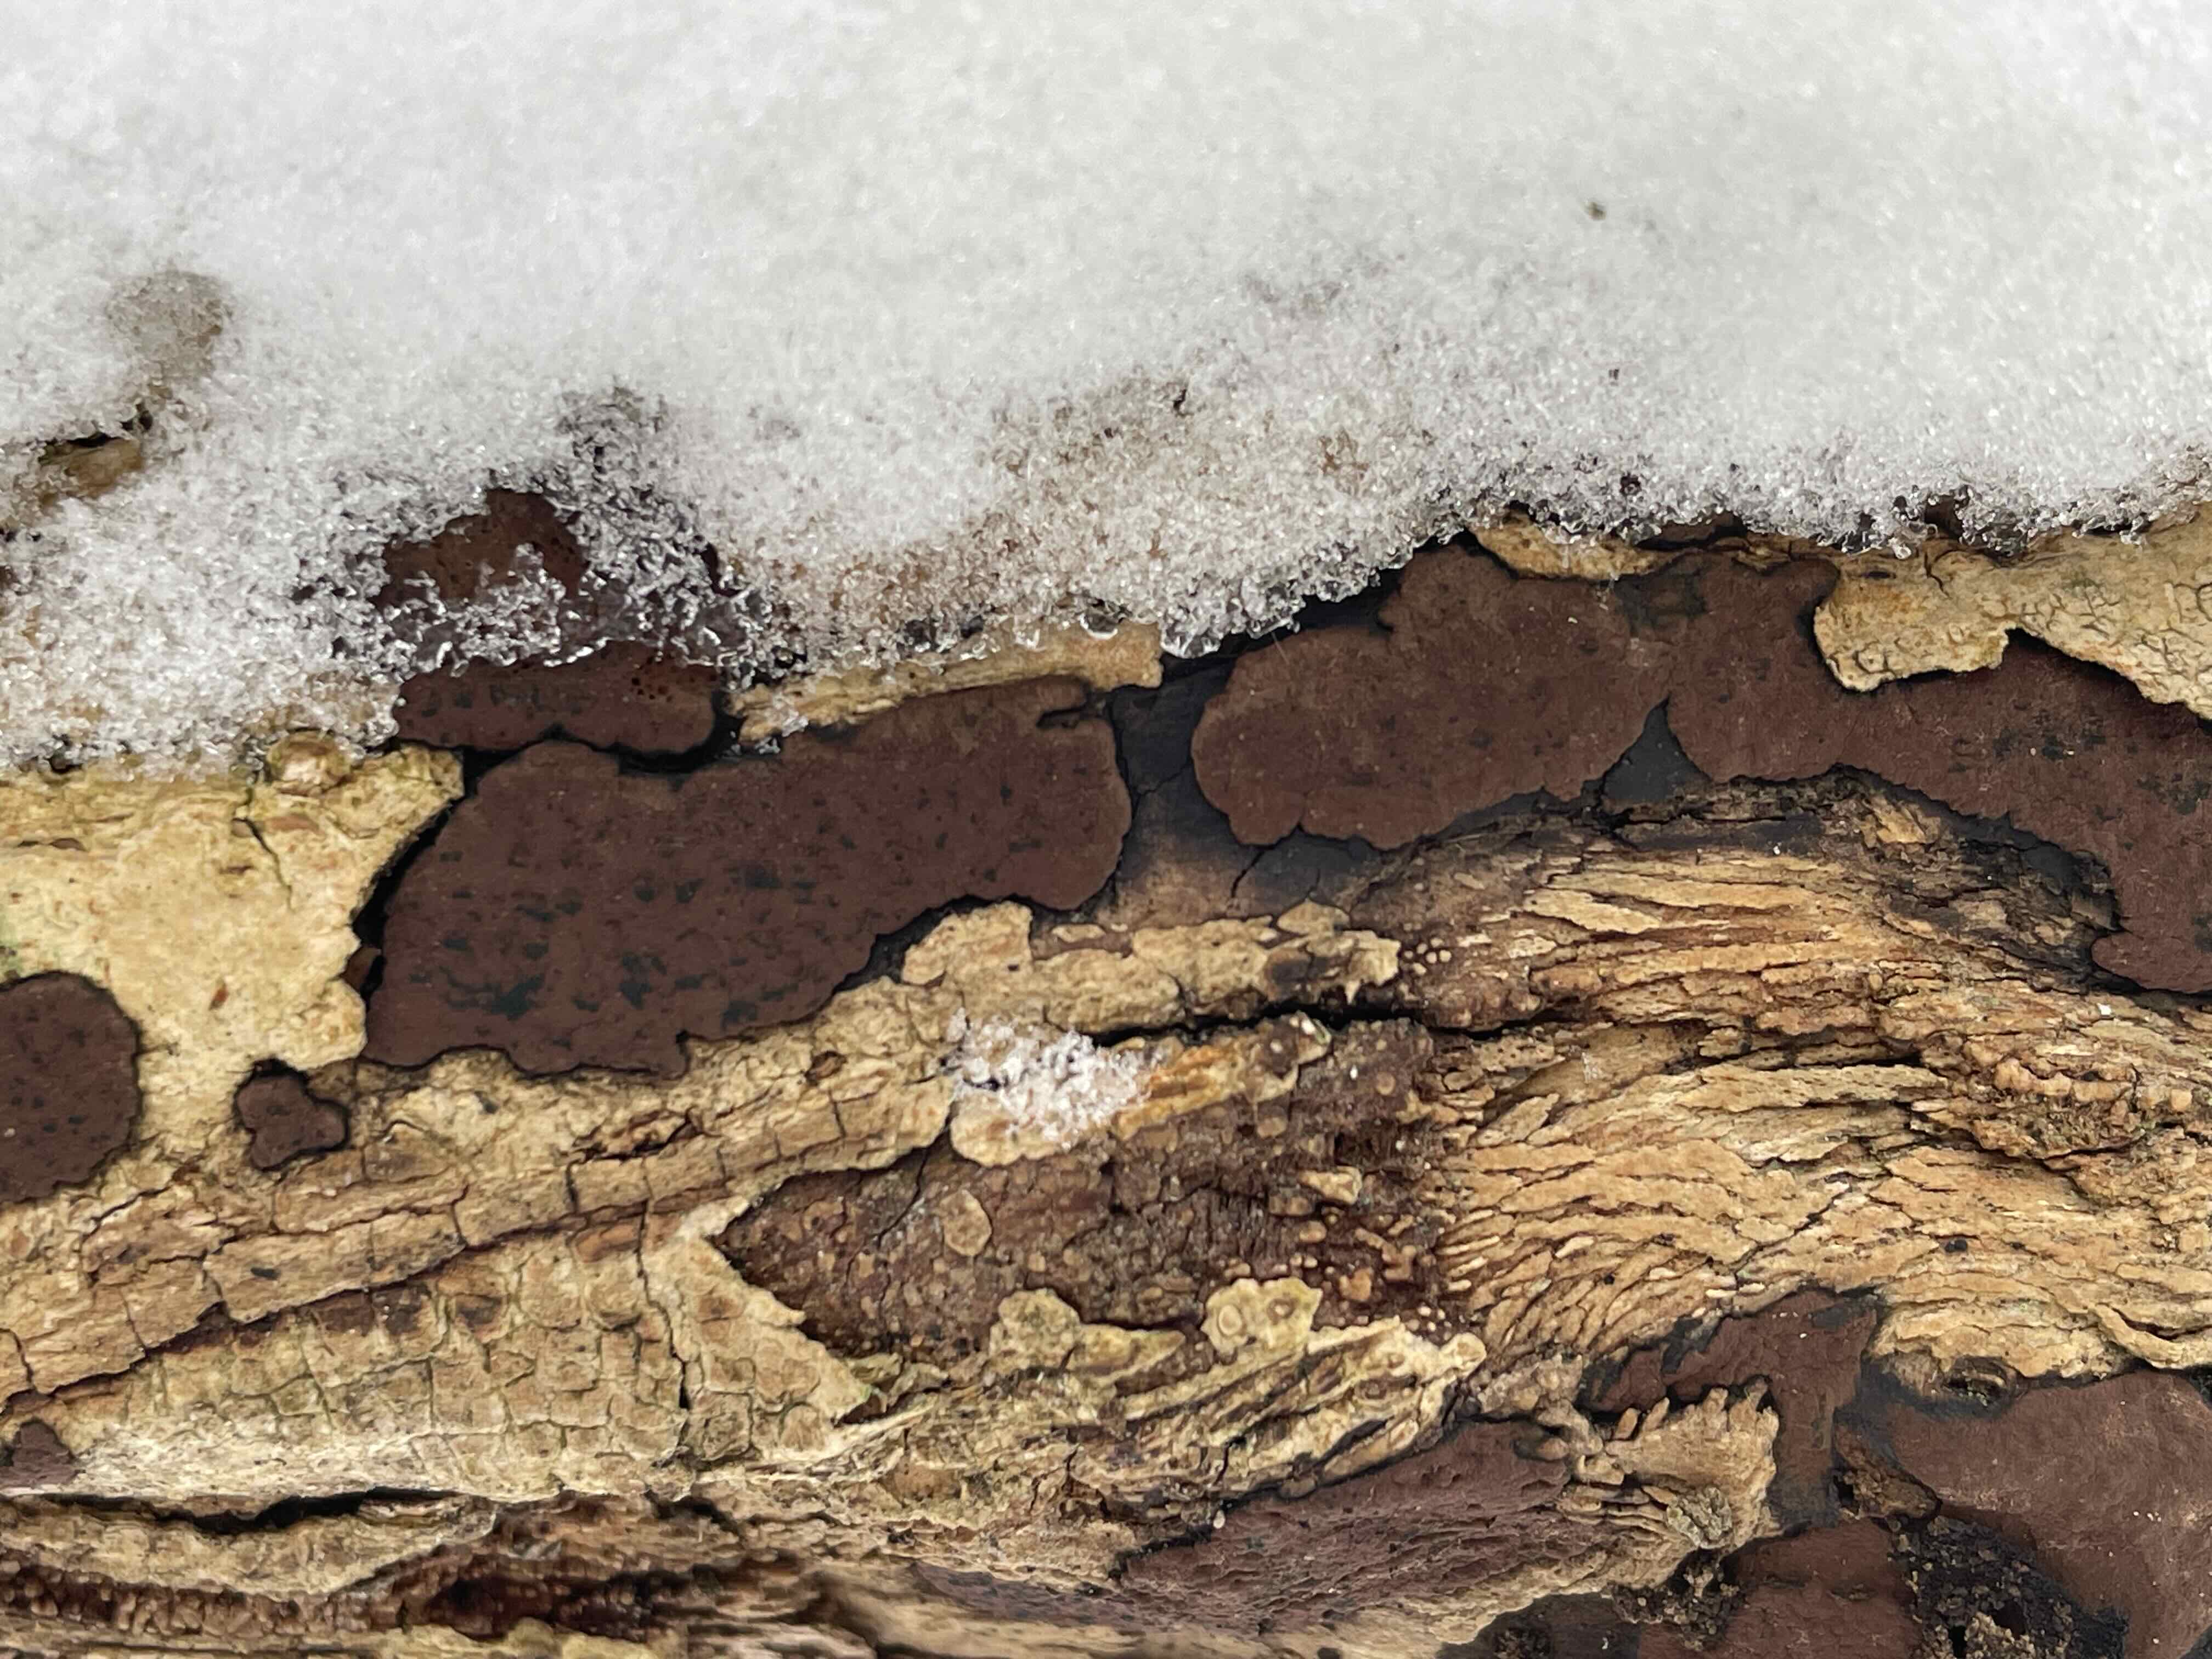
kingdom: Fungi
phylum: Ascomycota
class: Sordariomycetes
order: Xylariales
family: Hypoxylaceae
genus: Hypoxylon
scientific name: Hypoxylon petriniae
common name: nedsænket kulbær
